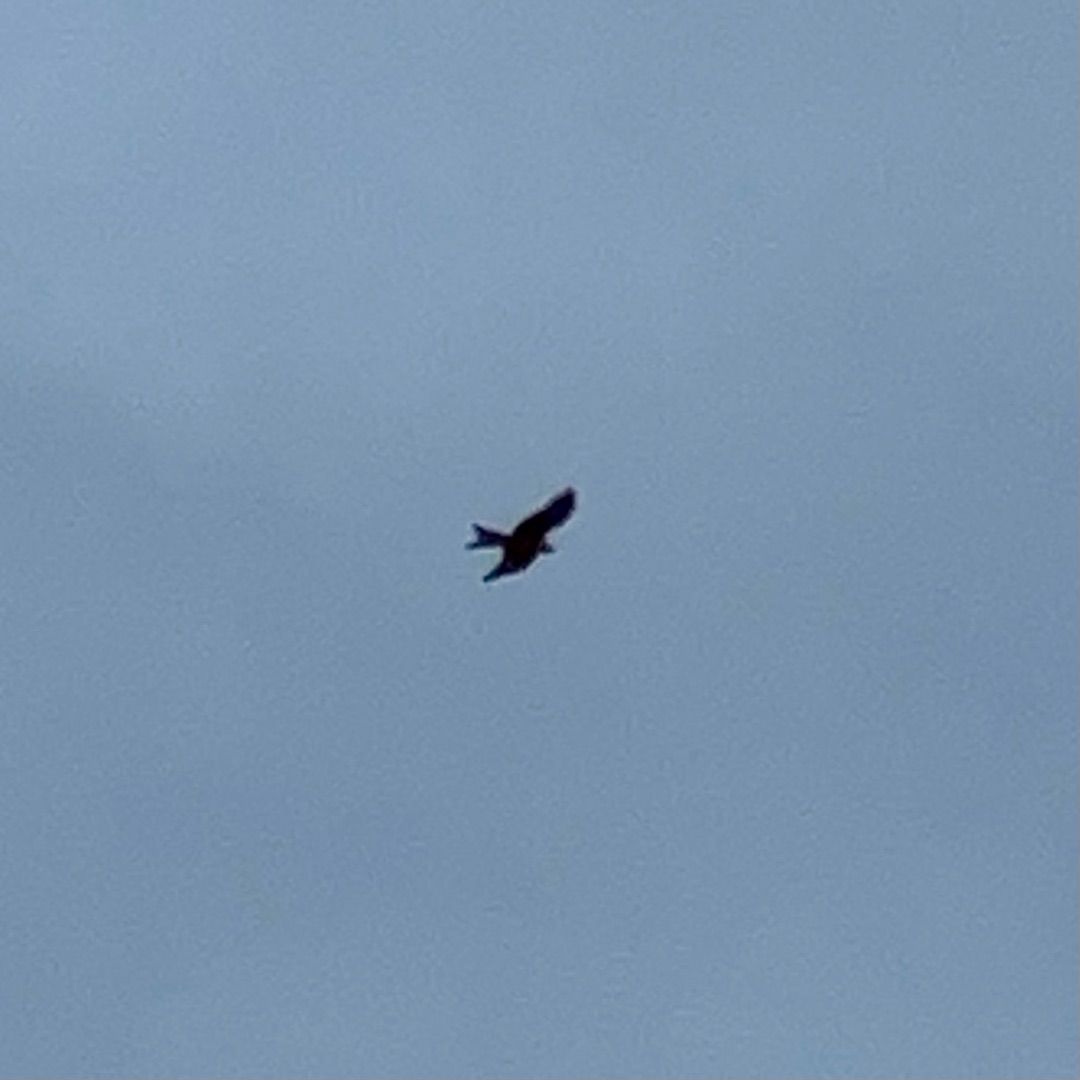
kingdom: Animalia
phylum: Chordata
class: Aves
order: Accipitriformes
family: Accipitridae
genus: Milvus
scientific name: Milvus milvus
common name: Rød glente
